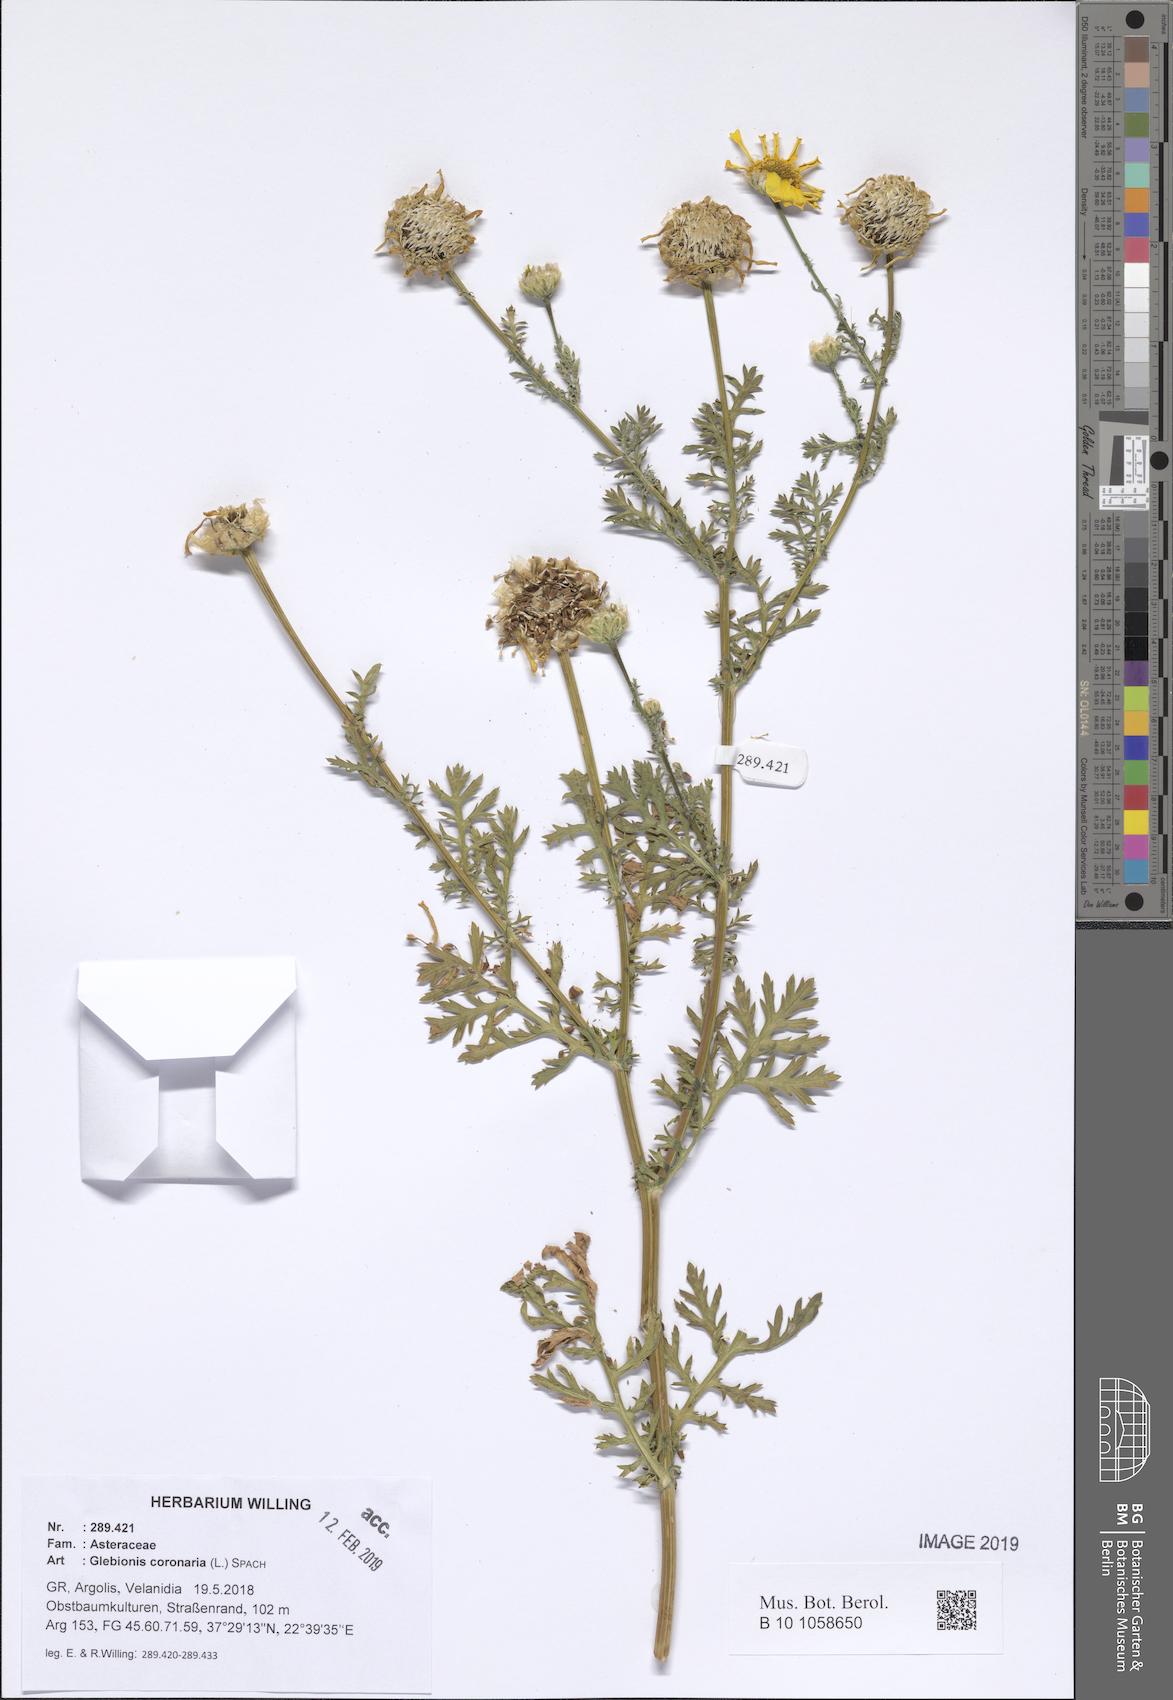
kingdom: Plantae
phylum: Tracheophyta
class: Magnoliopsida
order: Asterales
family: Asteraceae
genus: Glebionis
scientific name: Glebionis coronaria
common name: Crowndaisy
